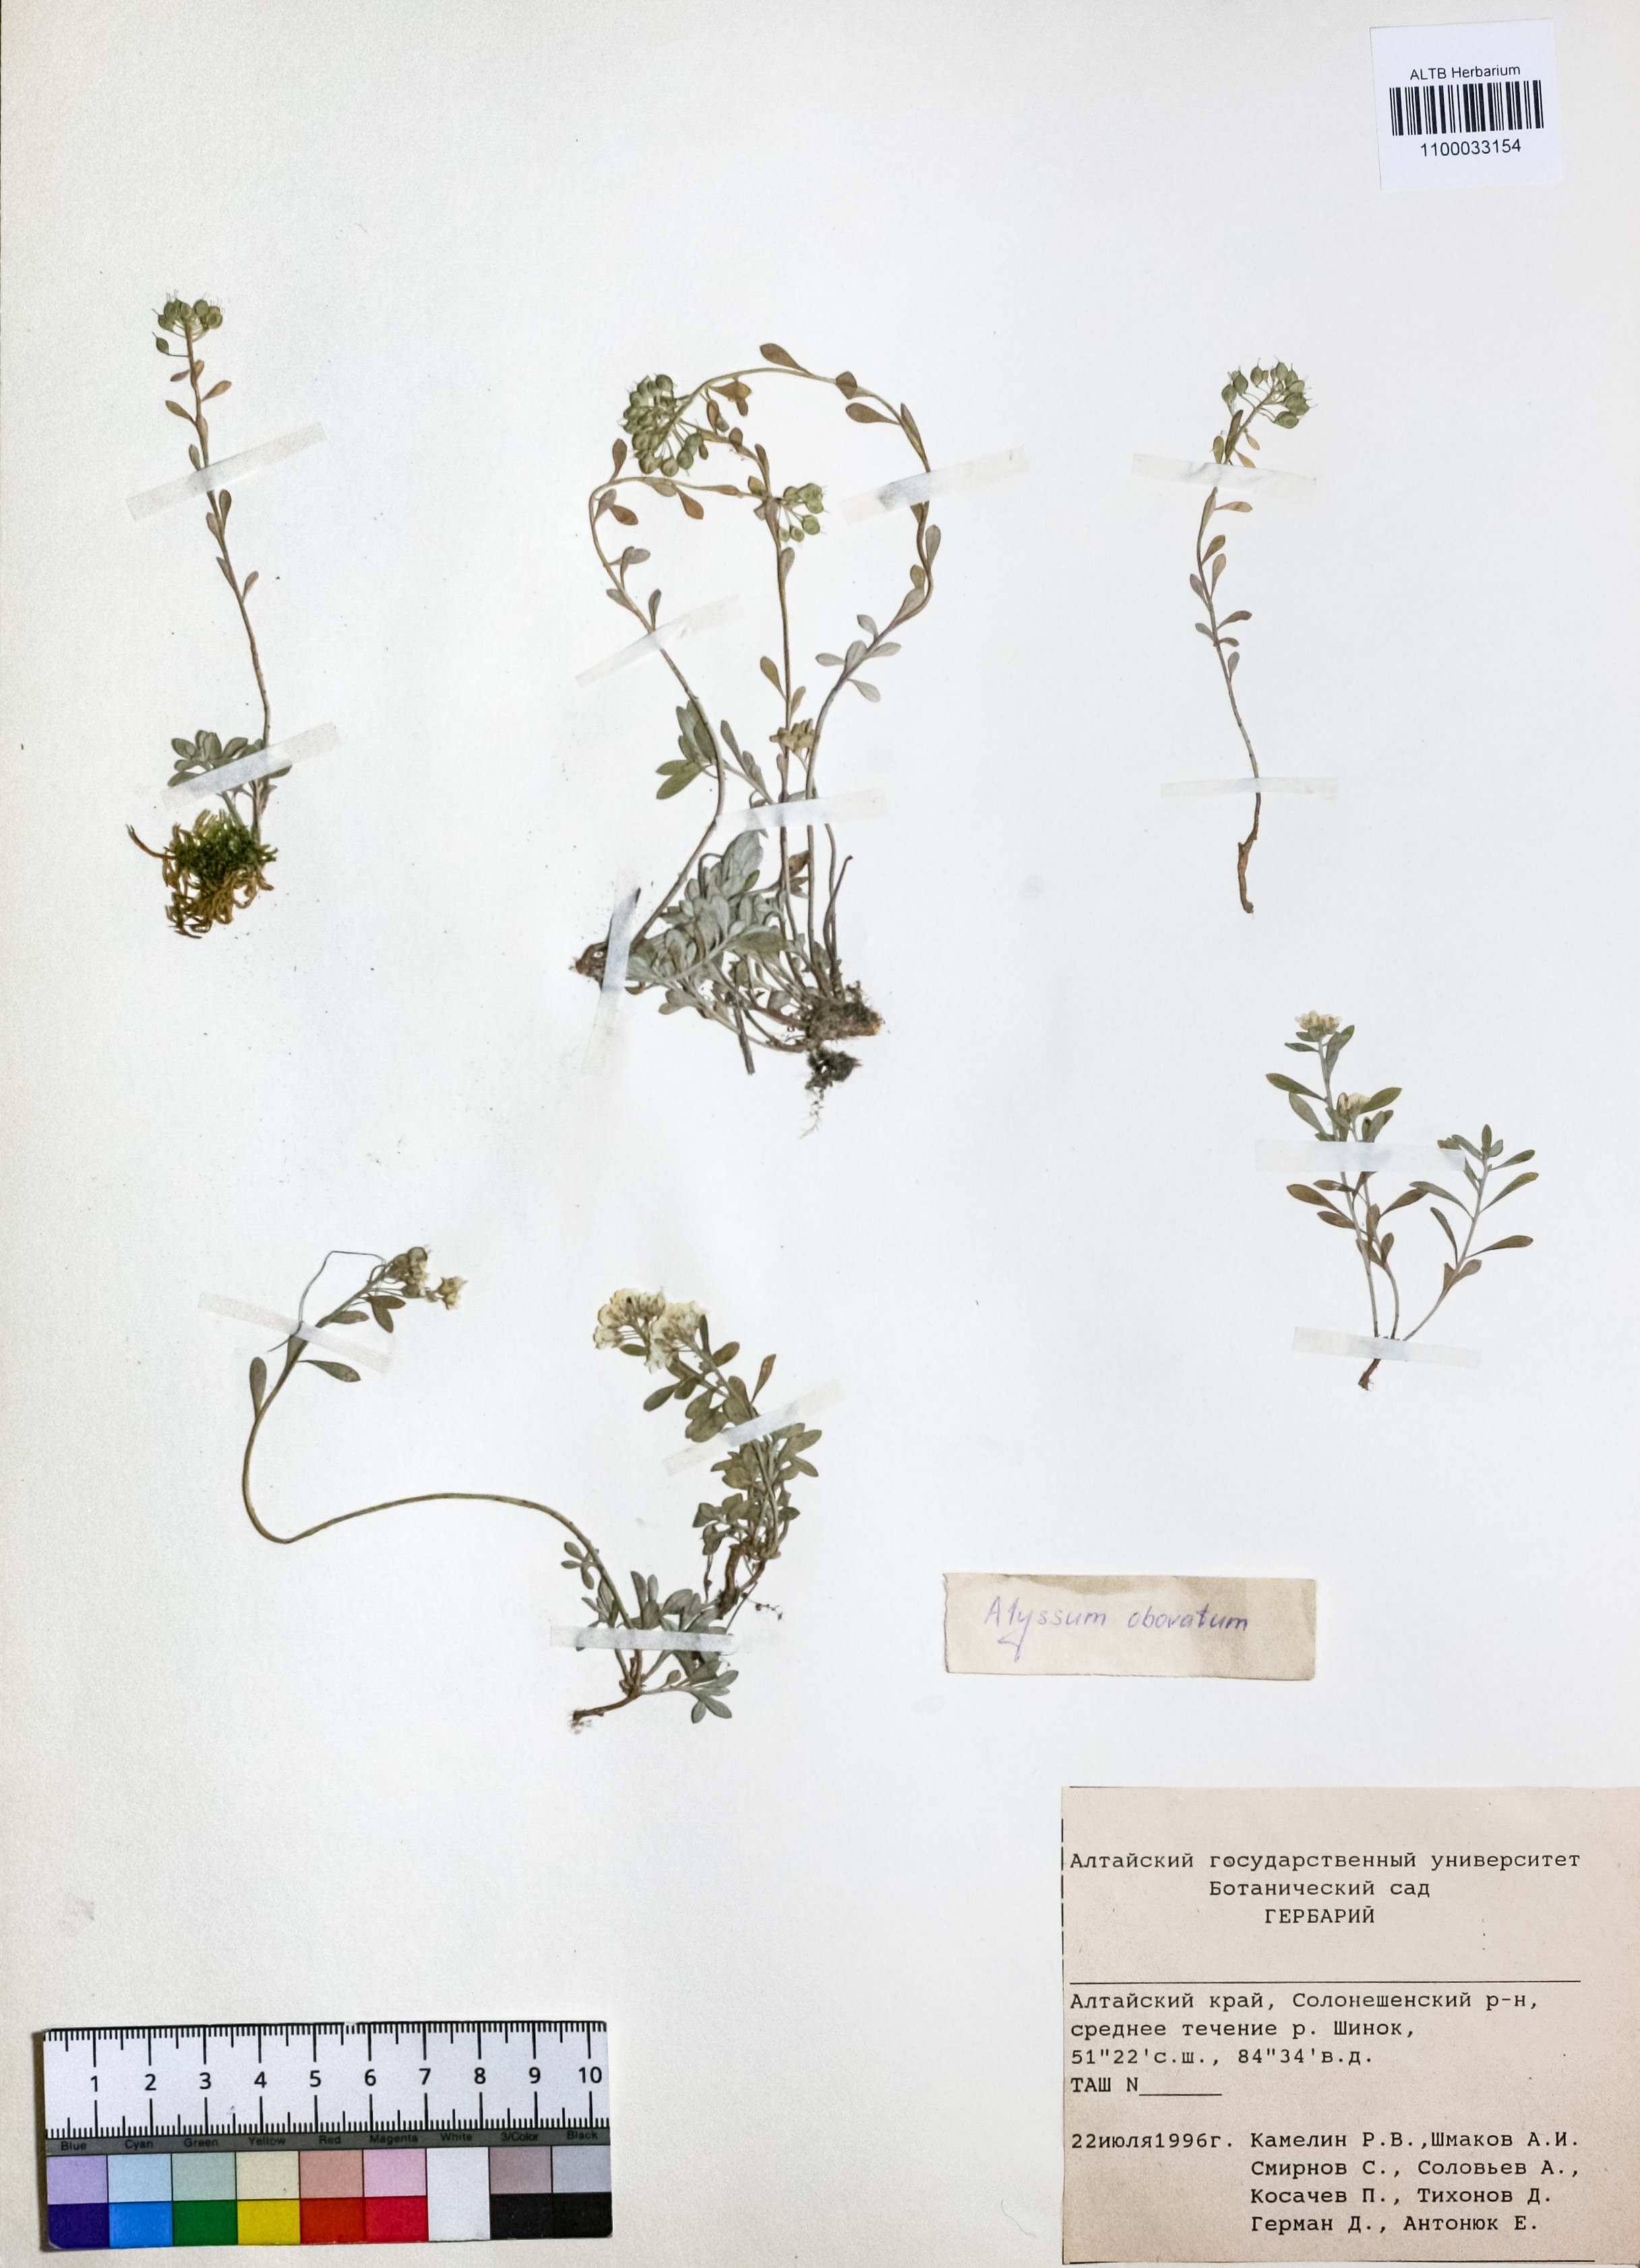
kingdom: Plantae
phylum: Tracheophyta
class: Magnoliopsida
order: Brassicales
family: Brassicaceae
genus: Odontarrhena
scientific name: Odontarrhena obovata
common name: American alyssum
